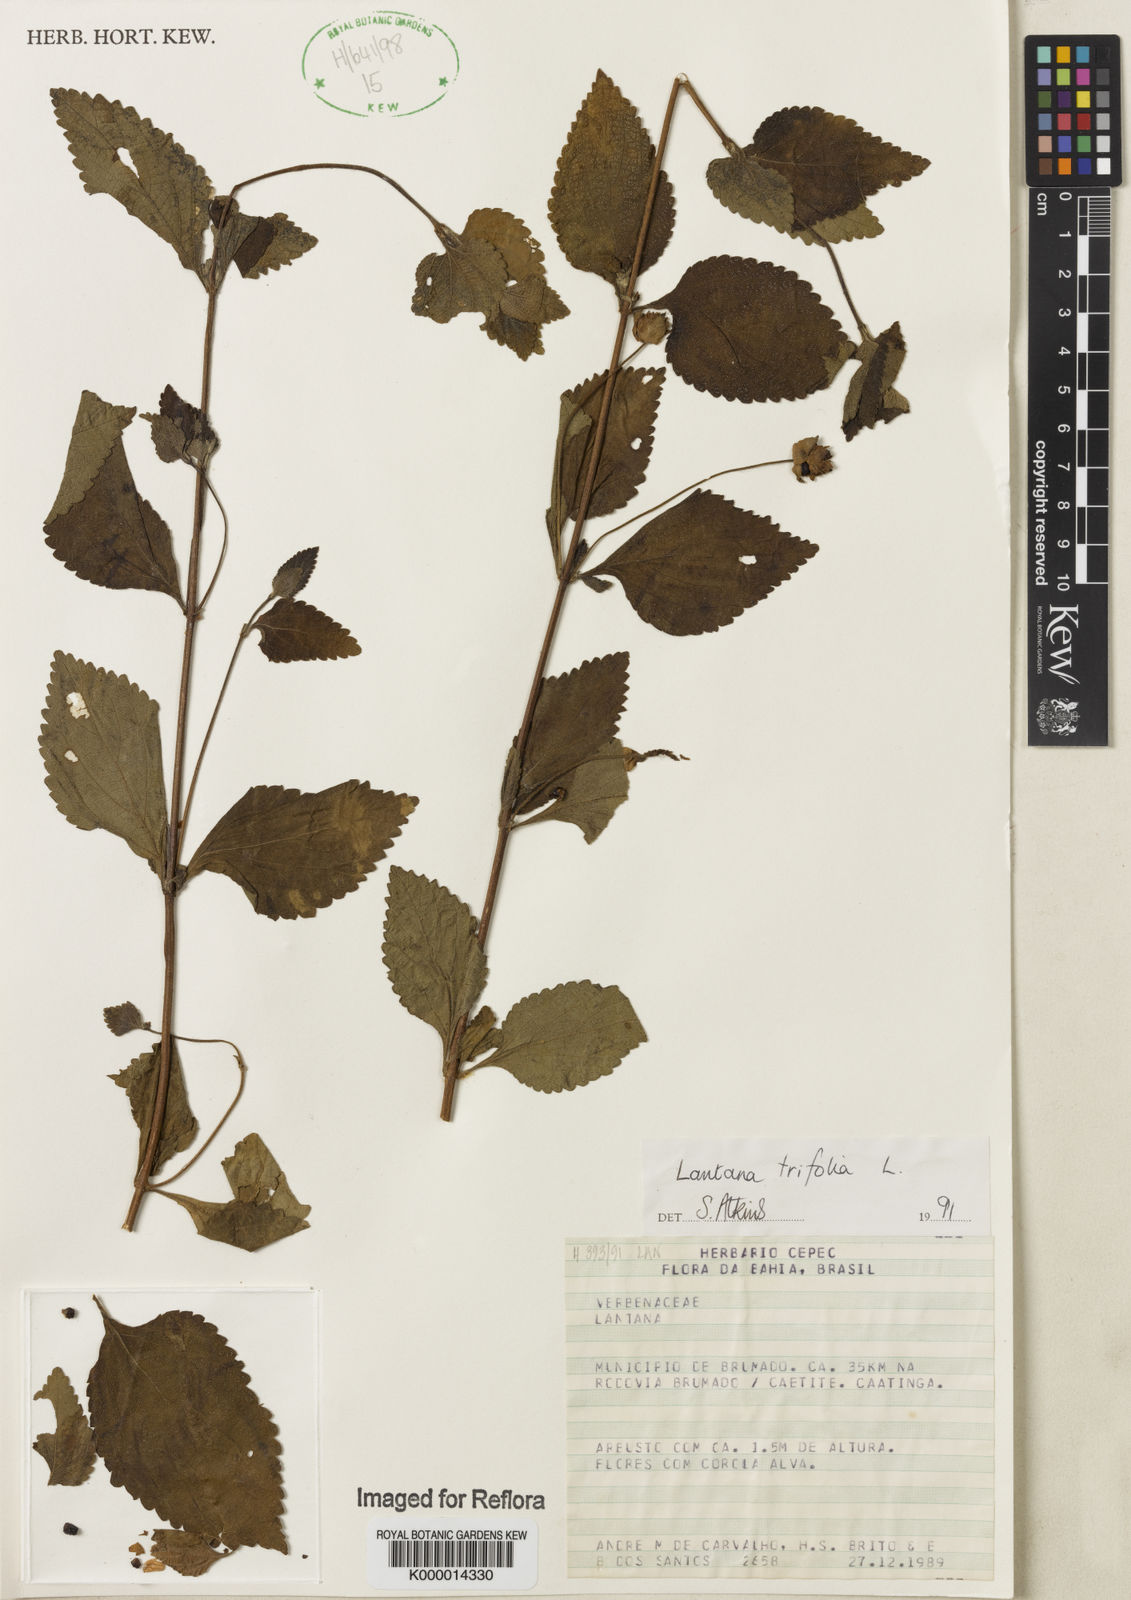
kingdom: Plantae
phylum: Tracheophyta
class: Magnoliopsida
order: Lamiales
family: Verbenaceae
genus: Lantana
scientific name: Lantana trifolia
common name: Sweet-sage
